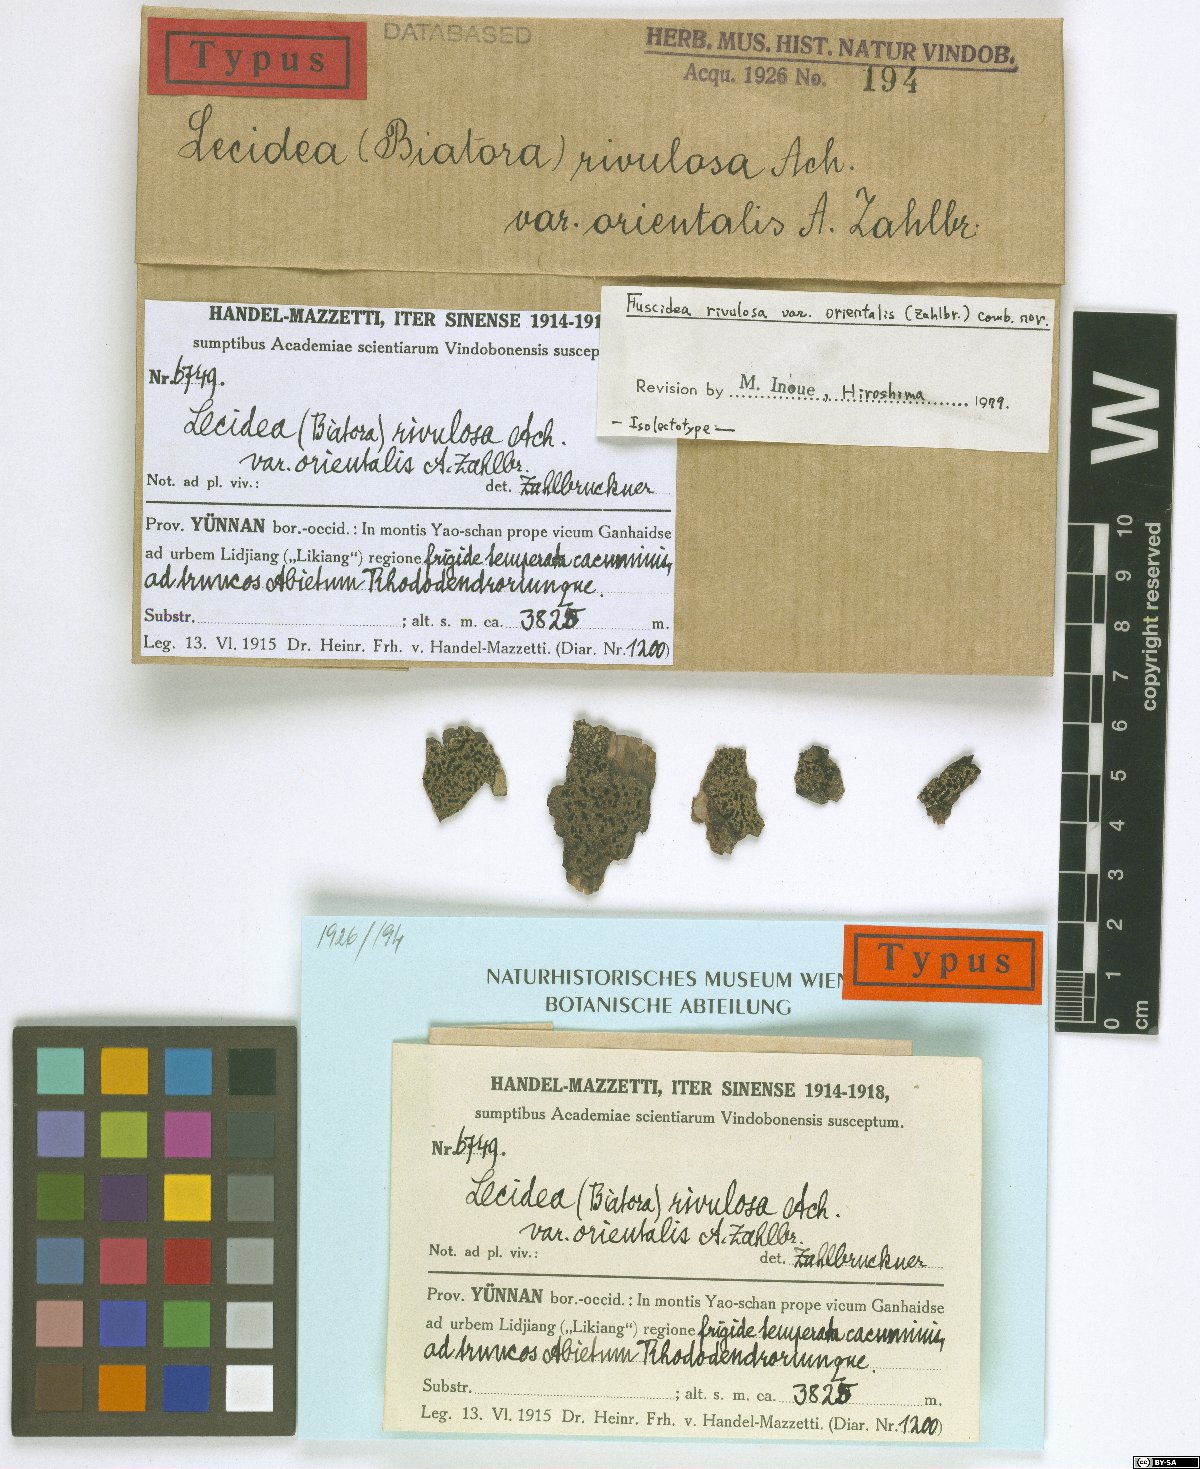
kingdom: Fungi
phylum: Ascomycota
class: Lecanoromycetes
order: Lecideales
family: Lecideaceae
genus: Lecidea
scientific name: Lecidea rivulorum
